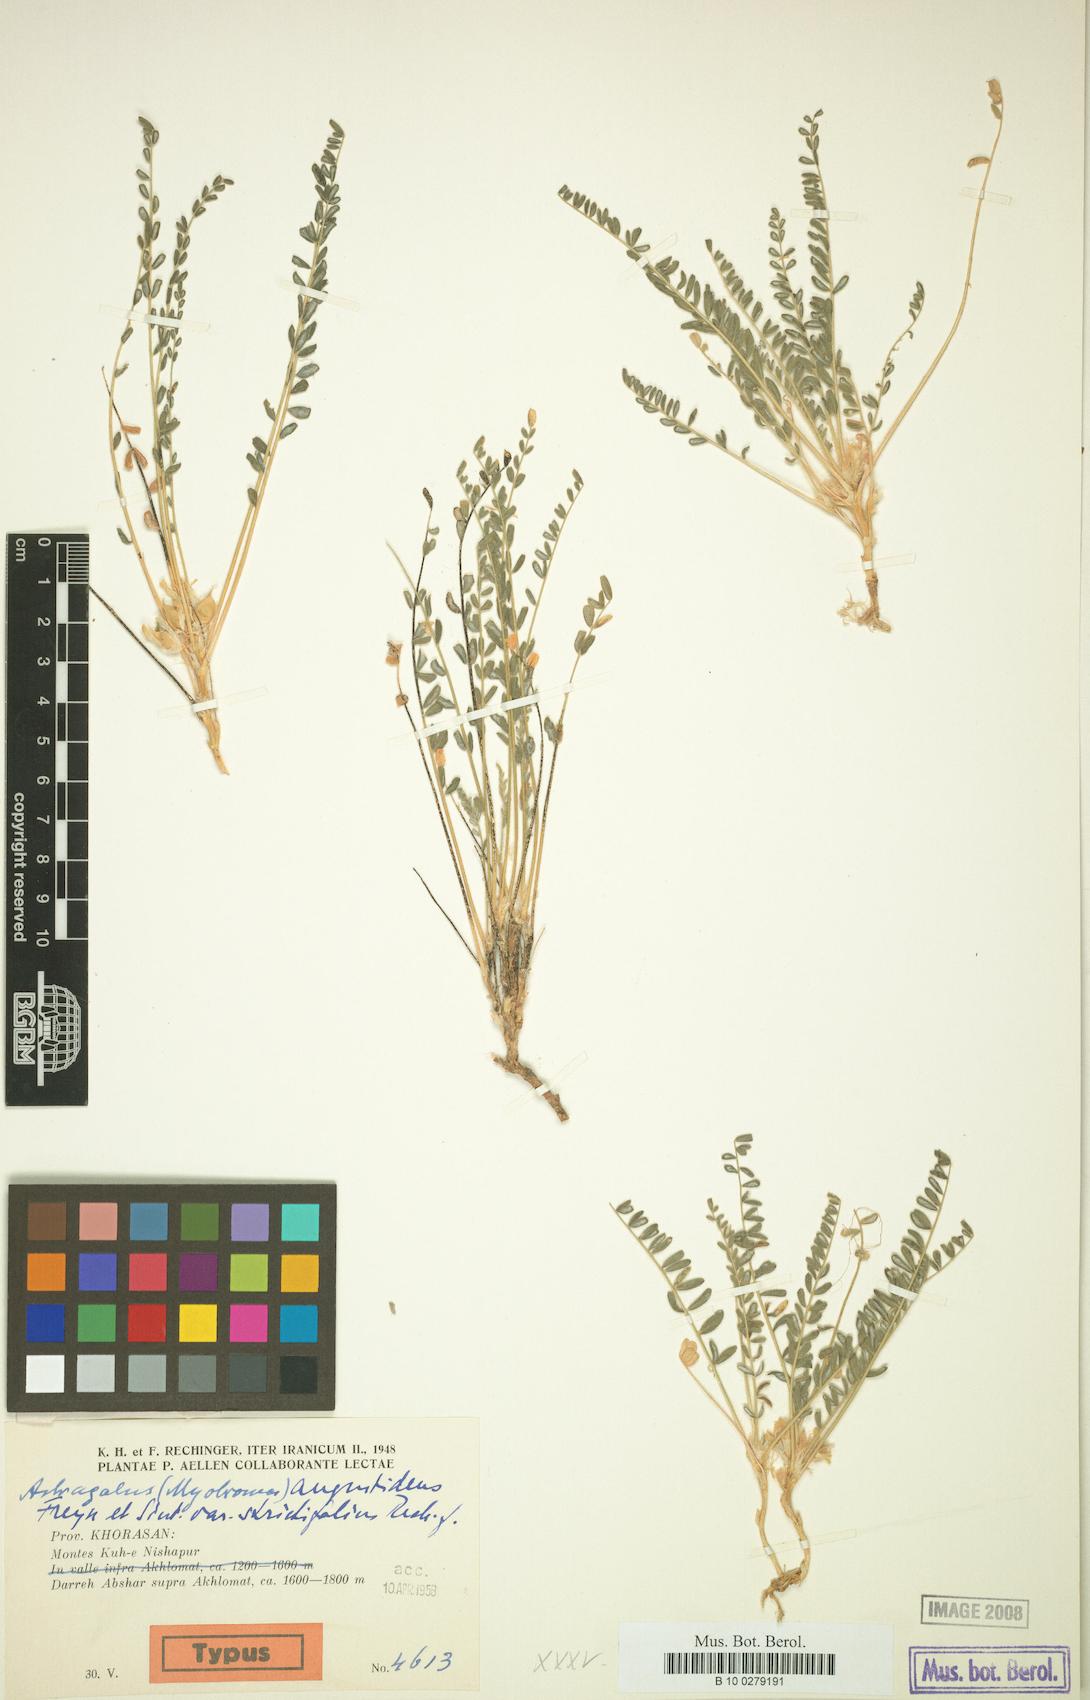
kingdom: Plantae
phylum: Tracheophyta
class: Magnoliopsida
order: Fabales
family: Fabaceae
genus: Astragalus
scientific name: Astragalus citrinus
